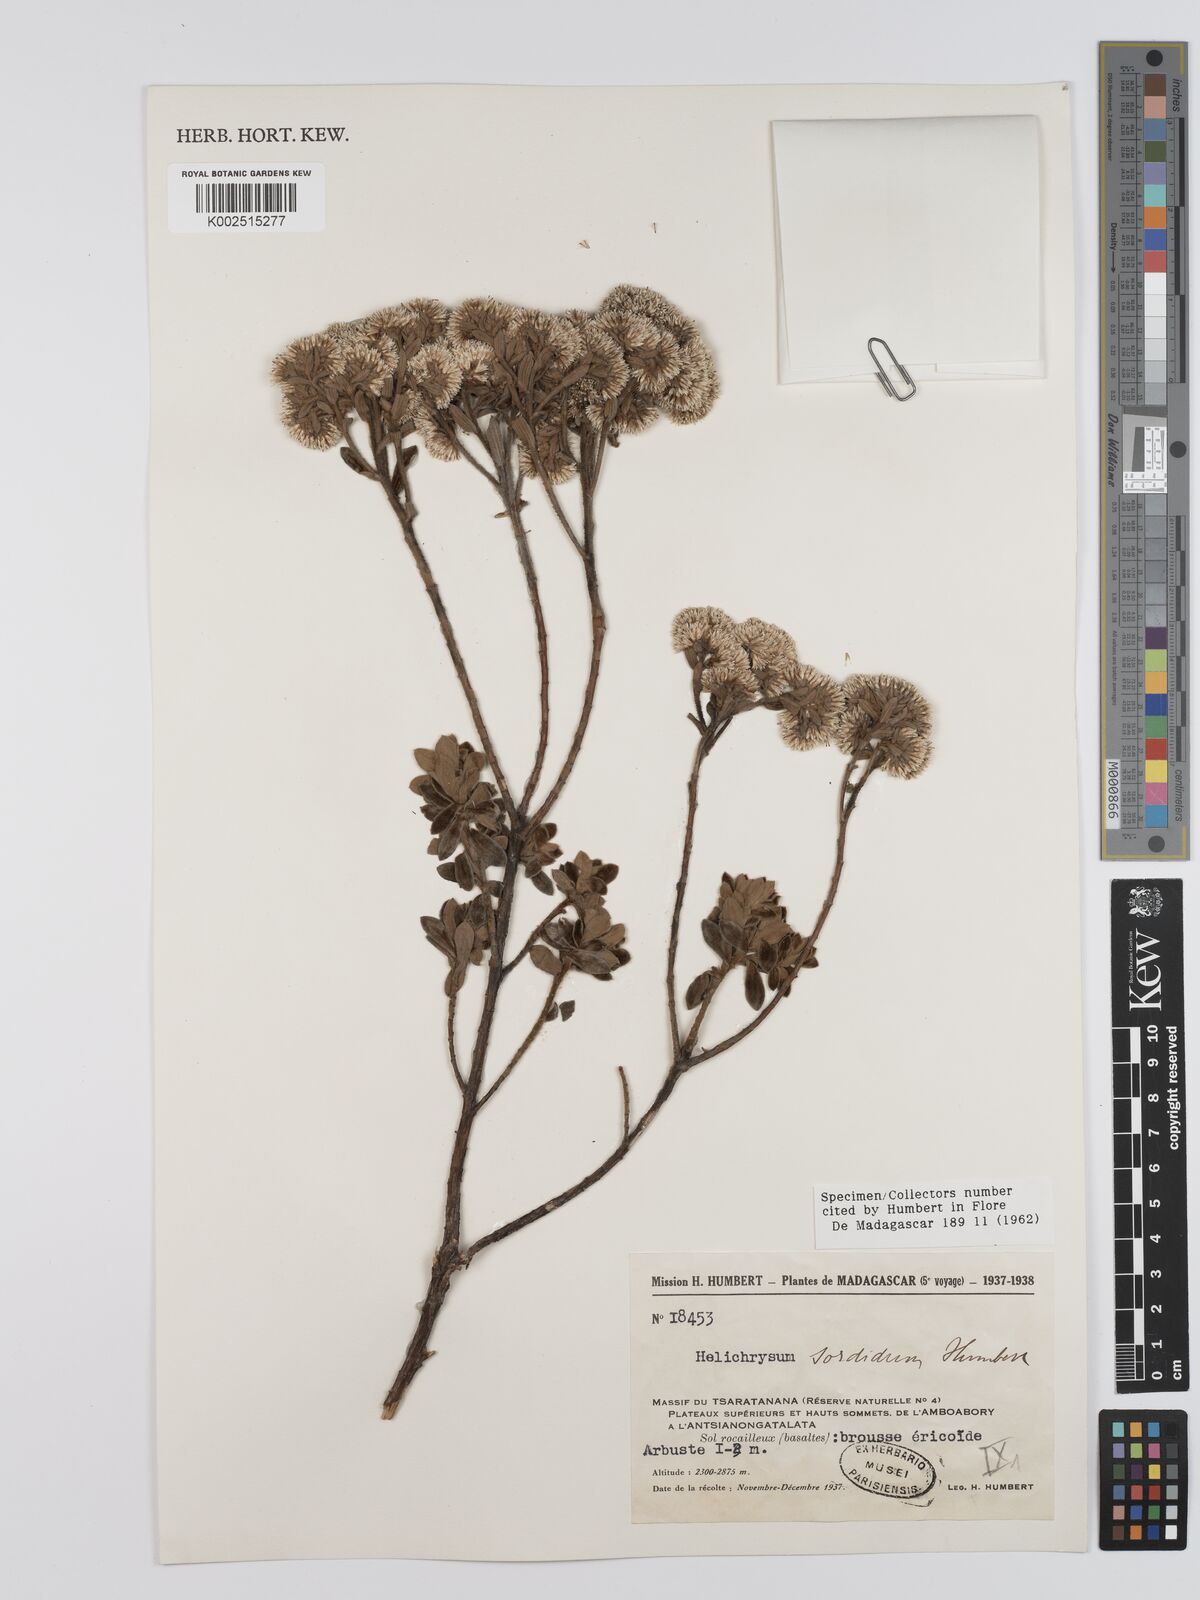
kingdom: Plantae
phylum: Tracheophyta
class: Magnoliopsida
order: Asterales
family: Asteraceae
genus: Helichrysum
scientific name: Helichrysum sordidum
